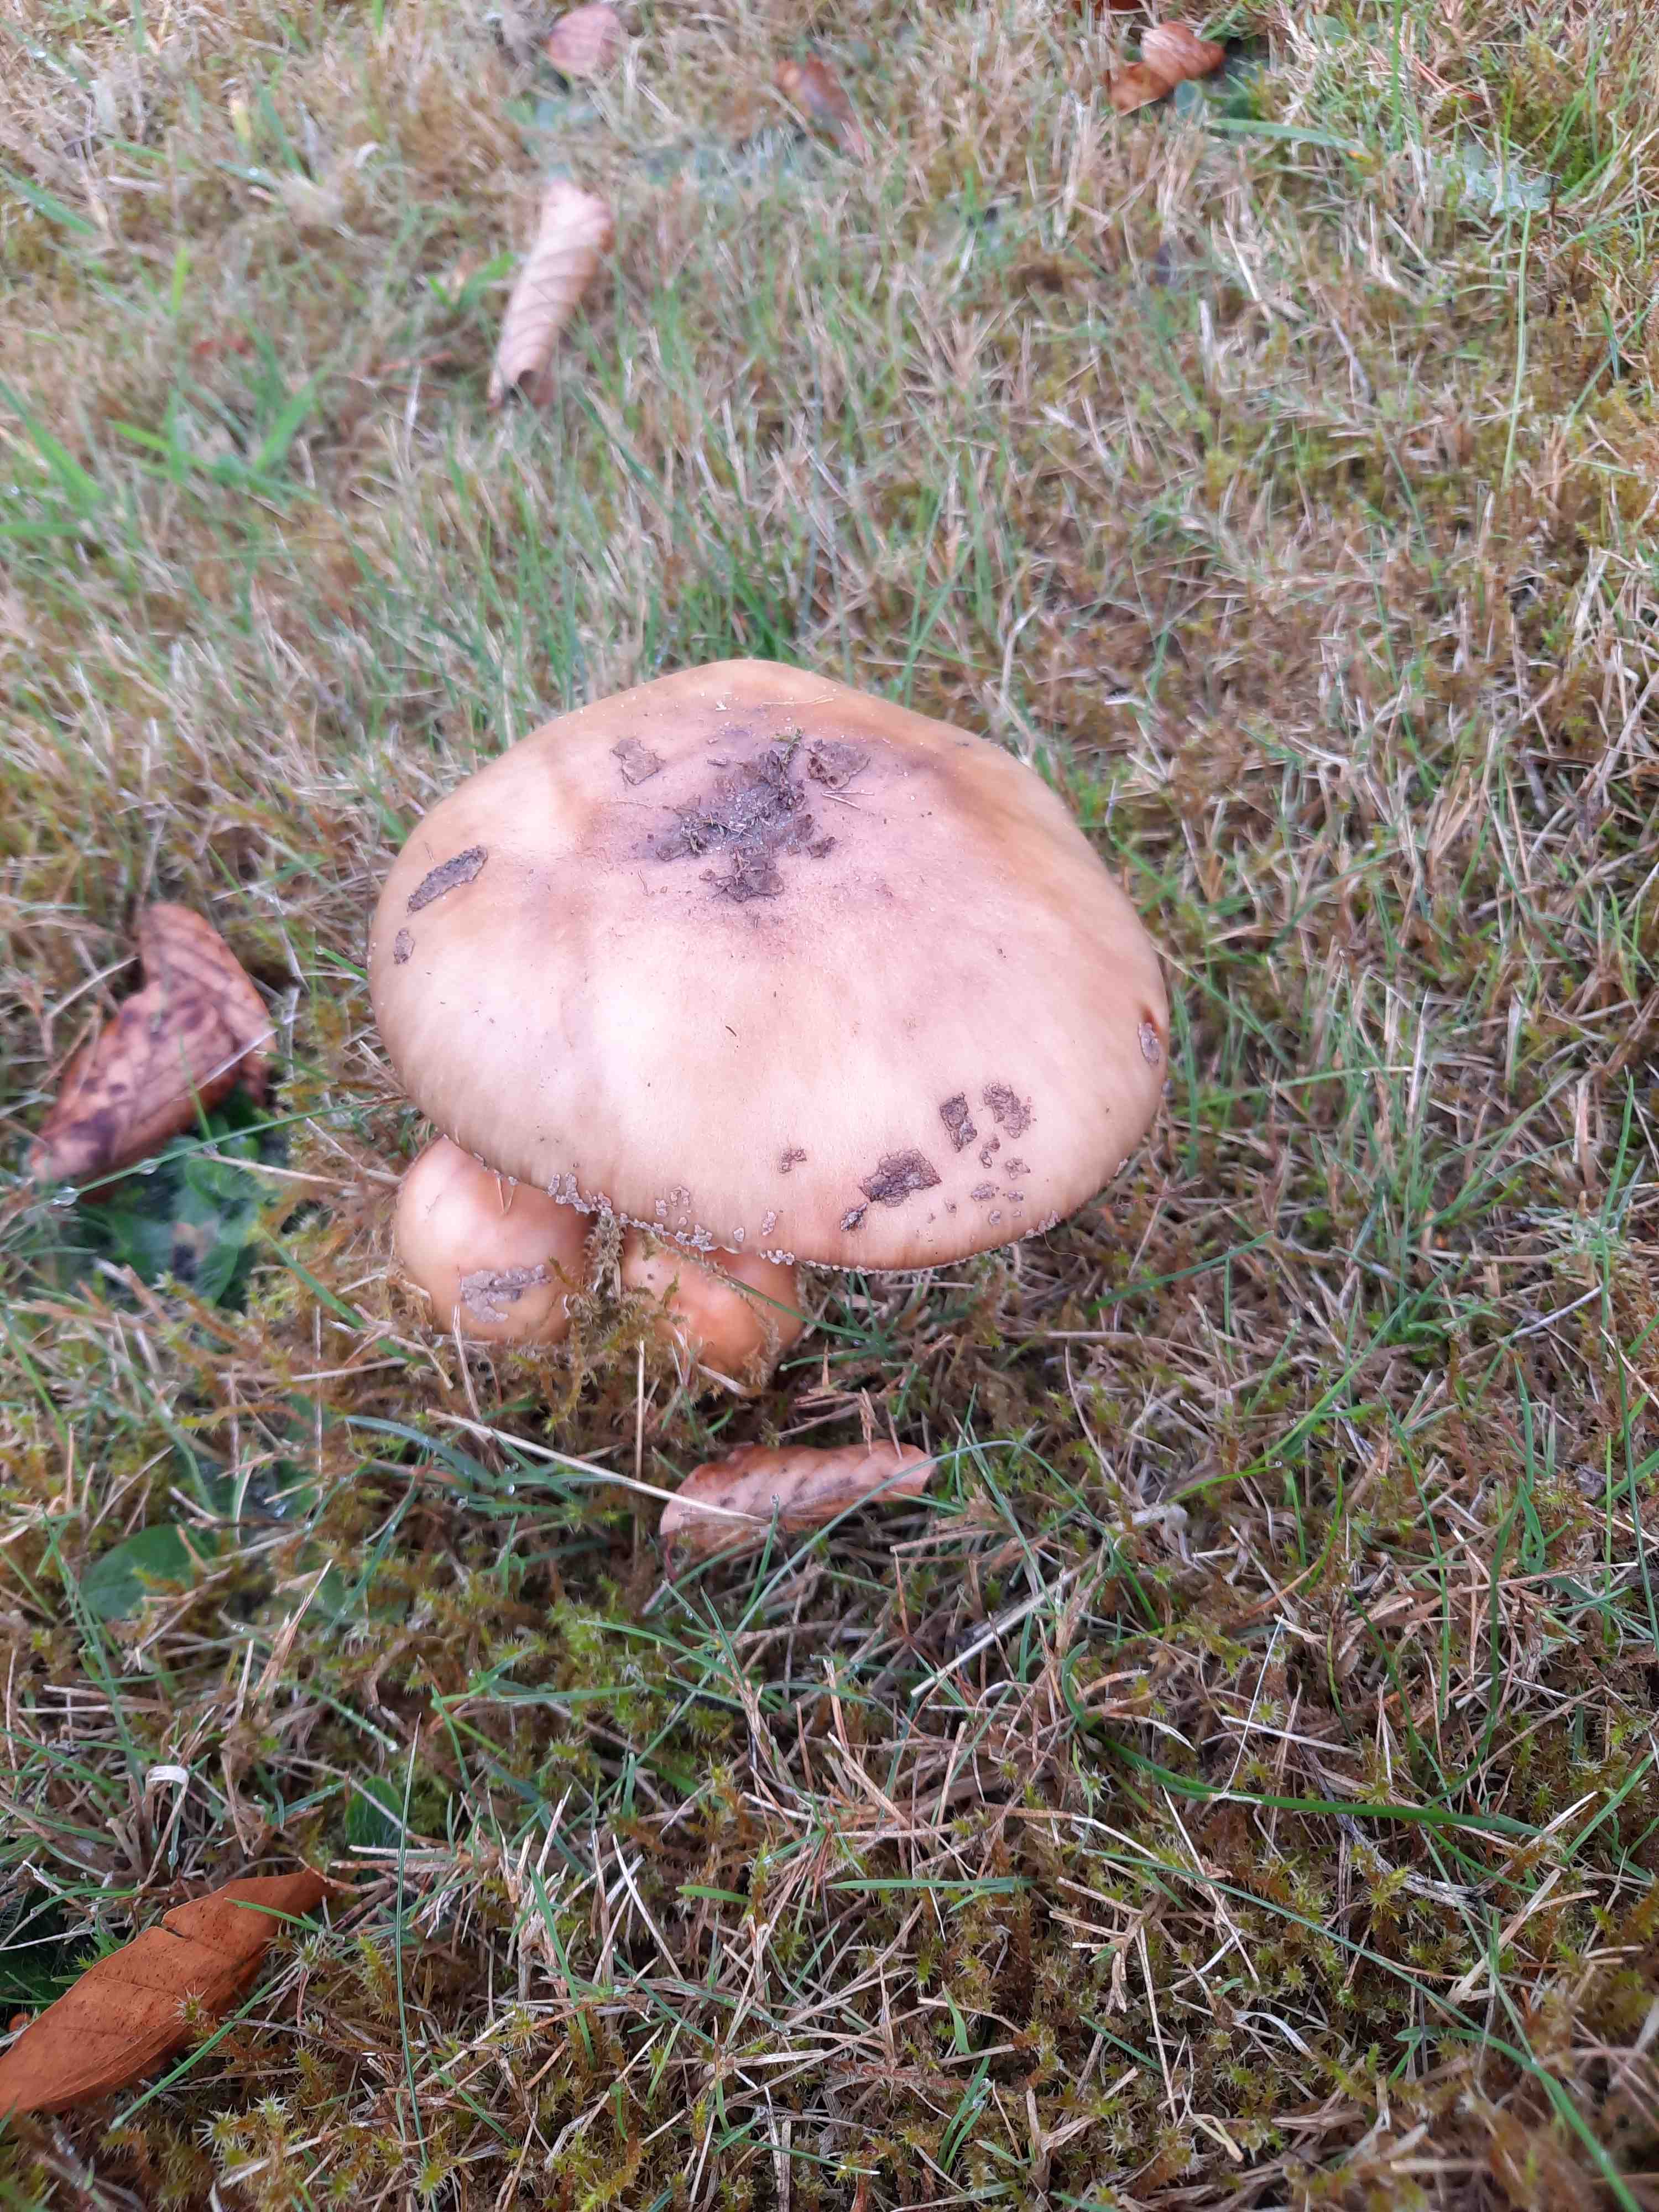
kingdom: Fungi
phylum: Basidiomycota
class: Agaricomycetes
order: Agaricales
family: Amanitaceae
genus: Amanita
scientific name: Amanita rubescens
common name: rødmende fluesvamp
